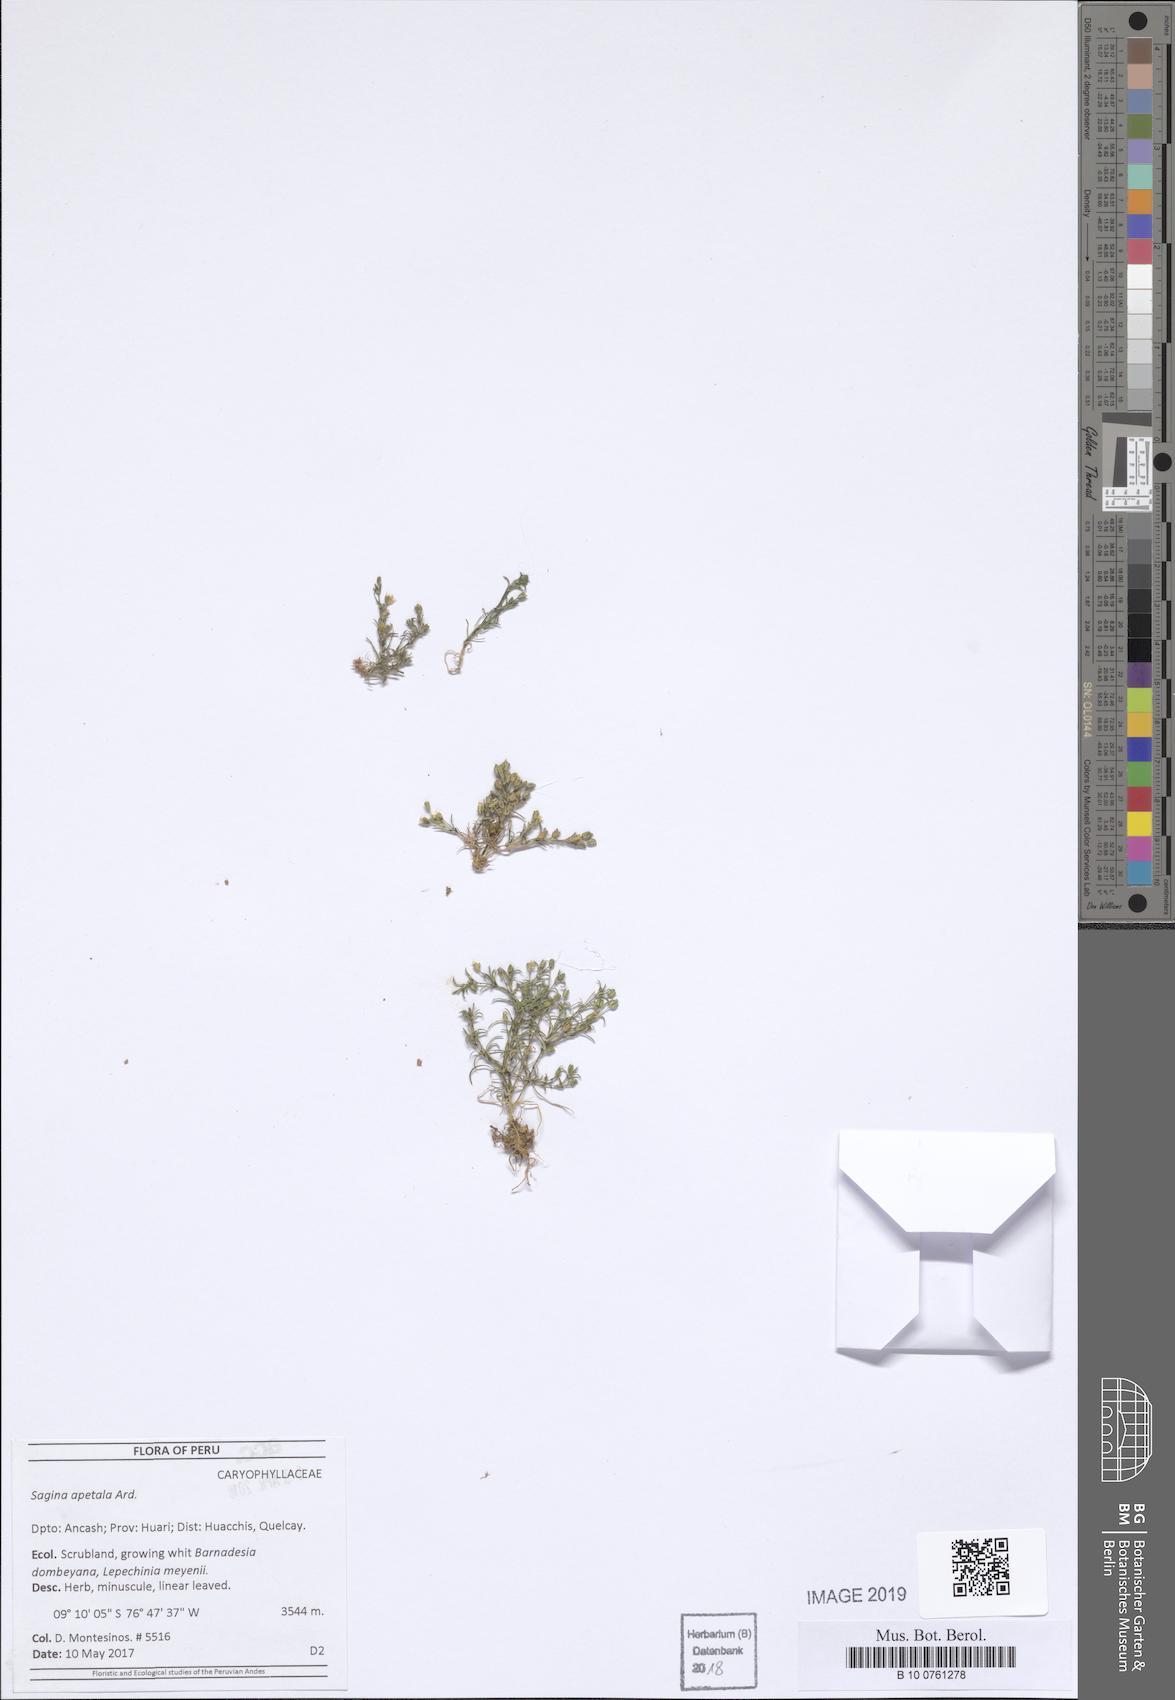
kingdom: Plantae
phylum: Tracheophyta
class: Magnoliopsida
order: Caryophyllales
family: Caryophyllaceae
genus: Sagina
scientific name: Sagina apetala
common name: Annual pearlwort
